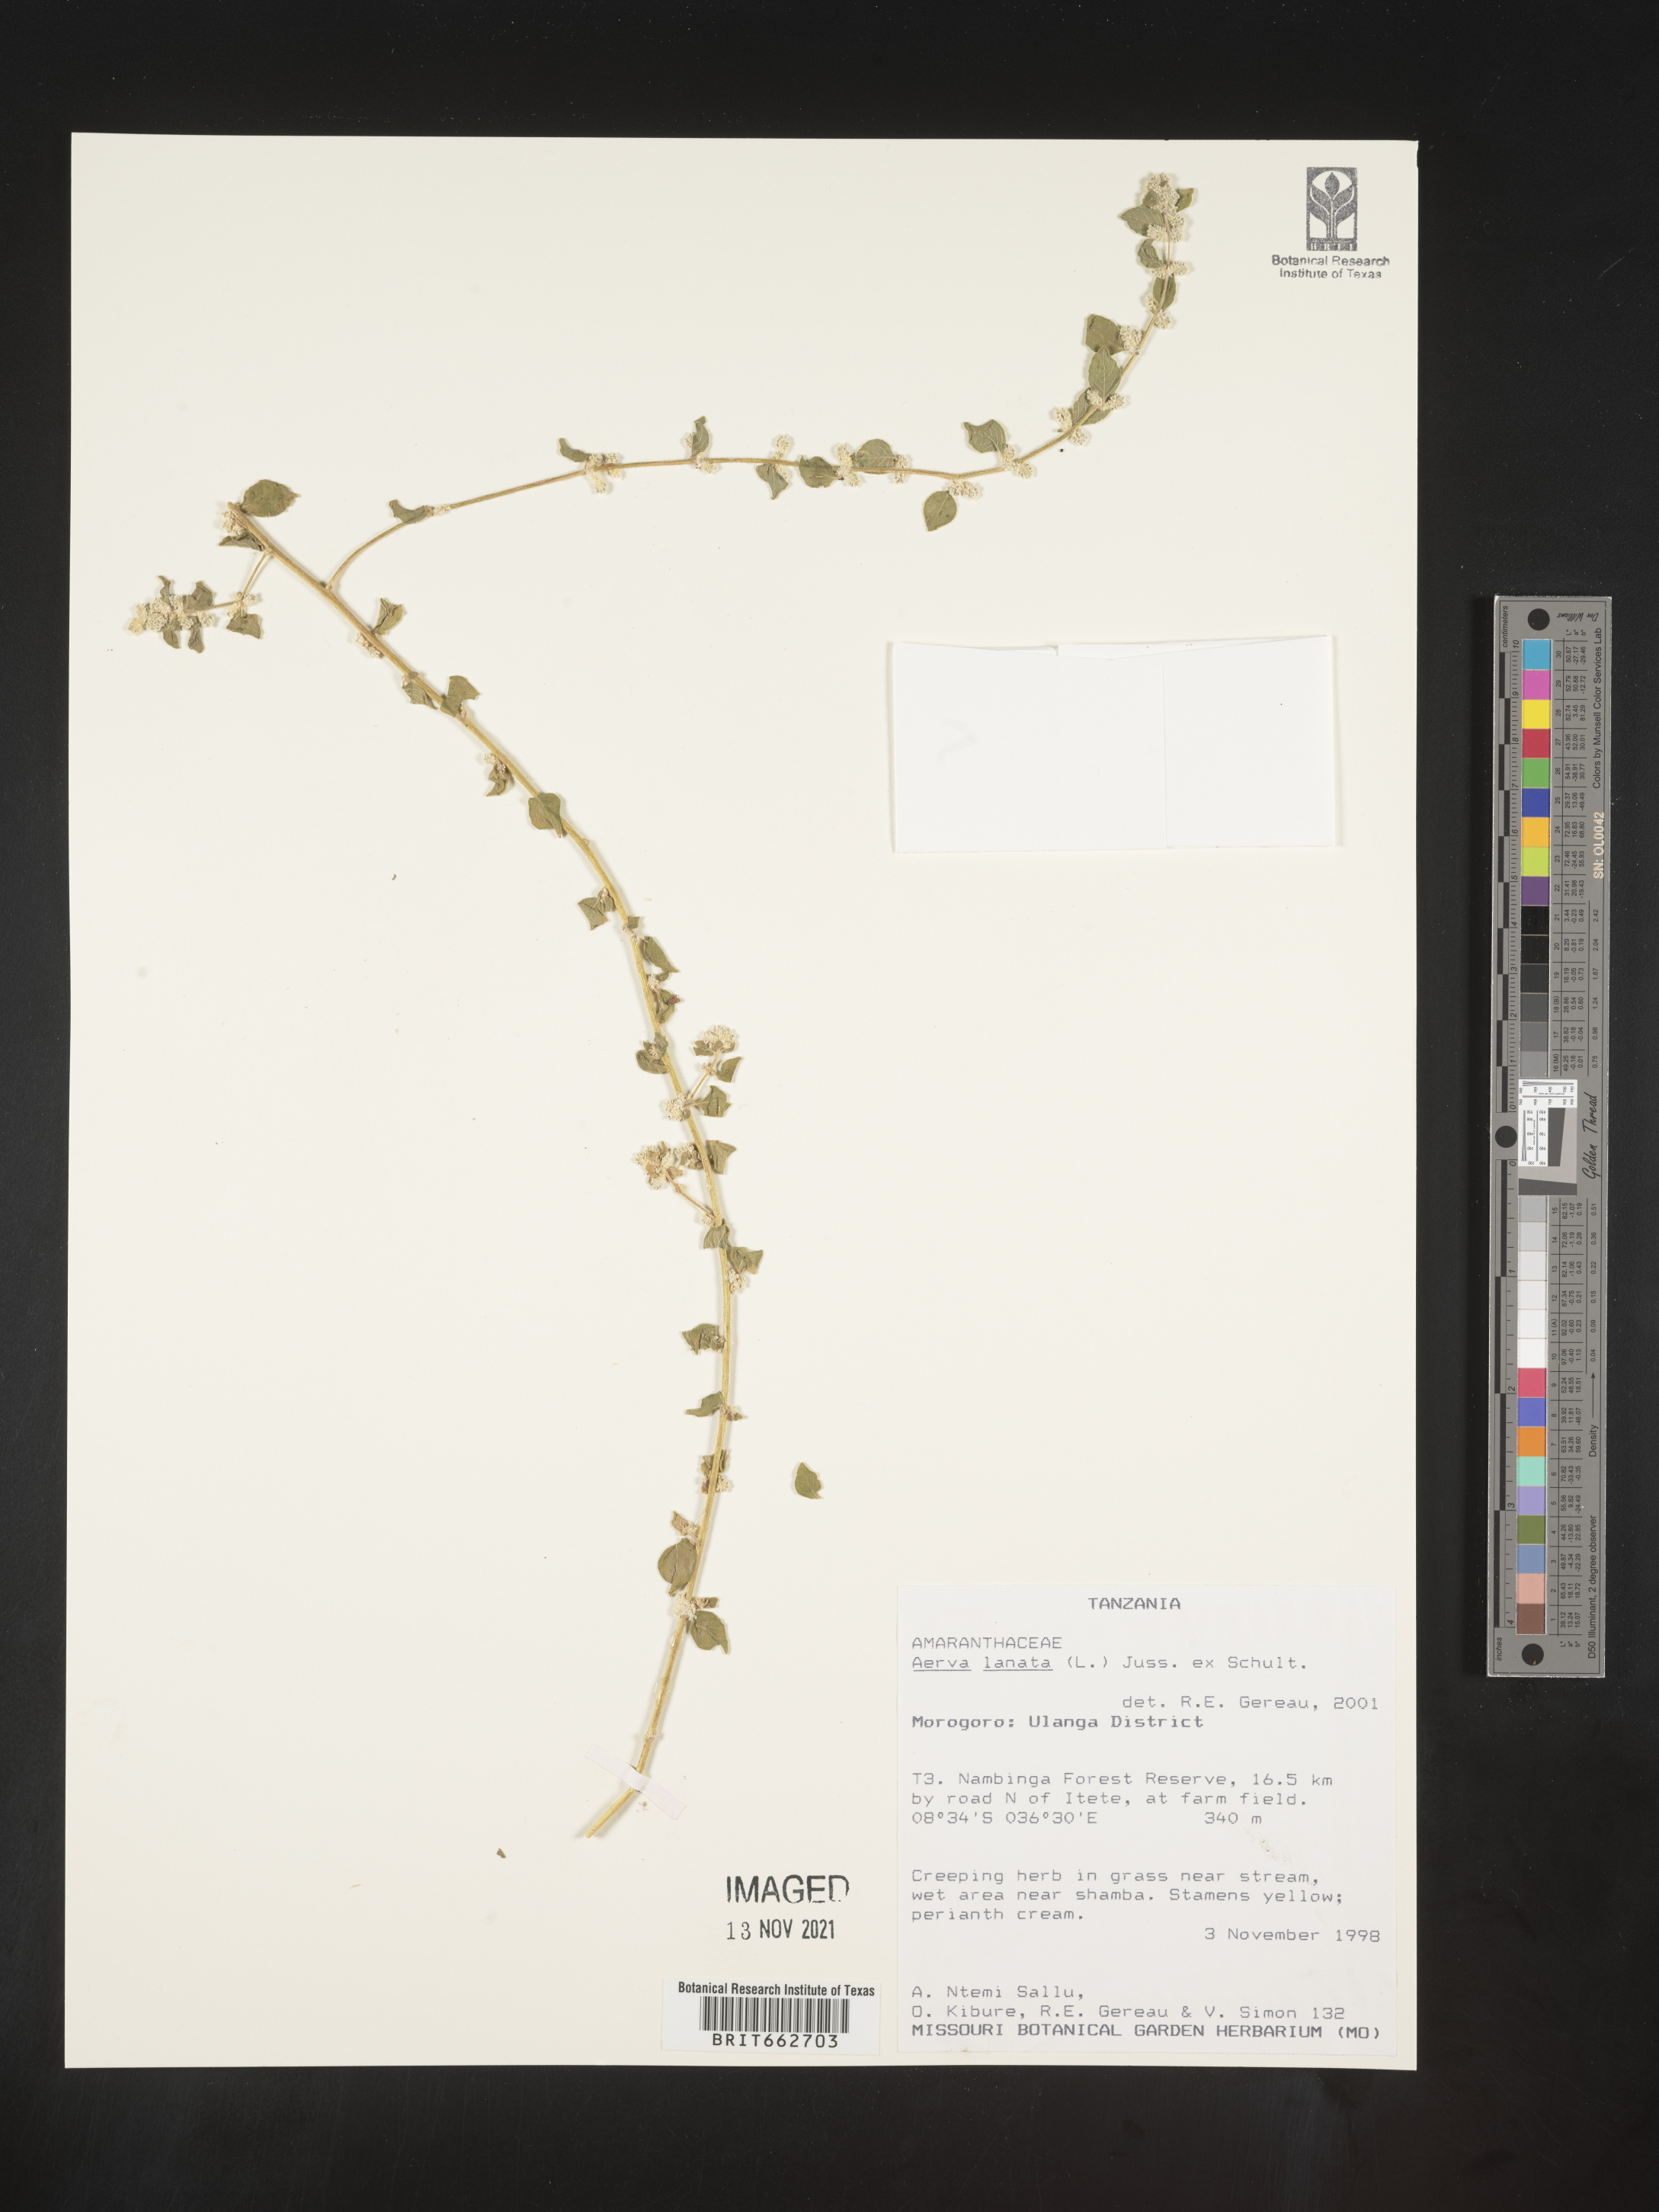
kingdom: Plantae
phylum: Tracheophyta
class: Magnoliopsida
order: Caryophyllales
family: Amaranthaceae
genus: Aerva
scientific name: Aerva
